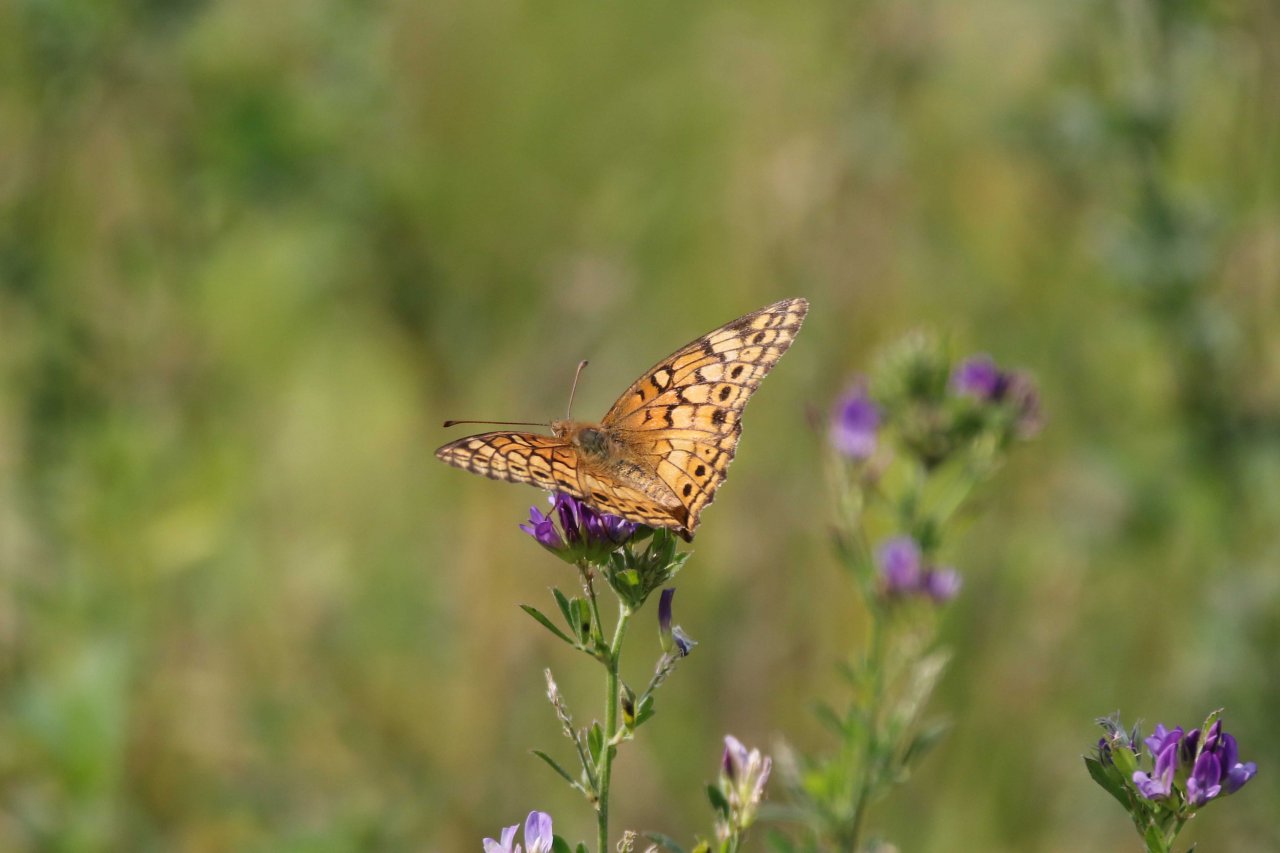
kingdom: Animalia
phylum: Arthropoda
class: Insecta
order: Lepidoptera
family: Nymphalidae
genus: Euptoieta
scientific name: Euptoieta claudia
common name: Variegated Fritillary
